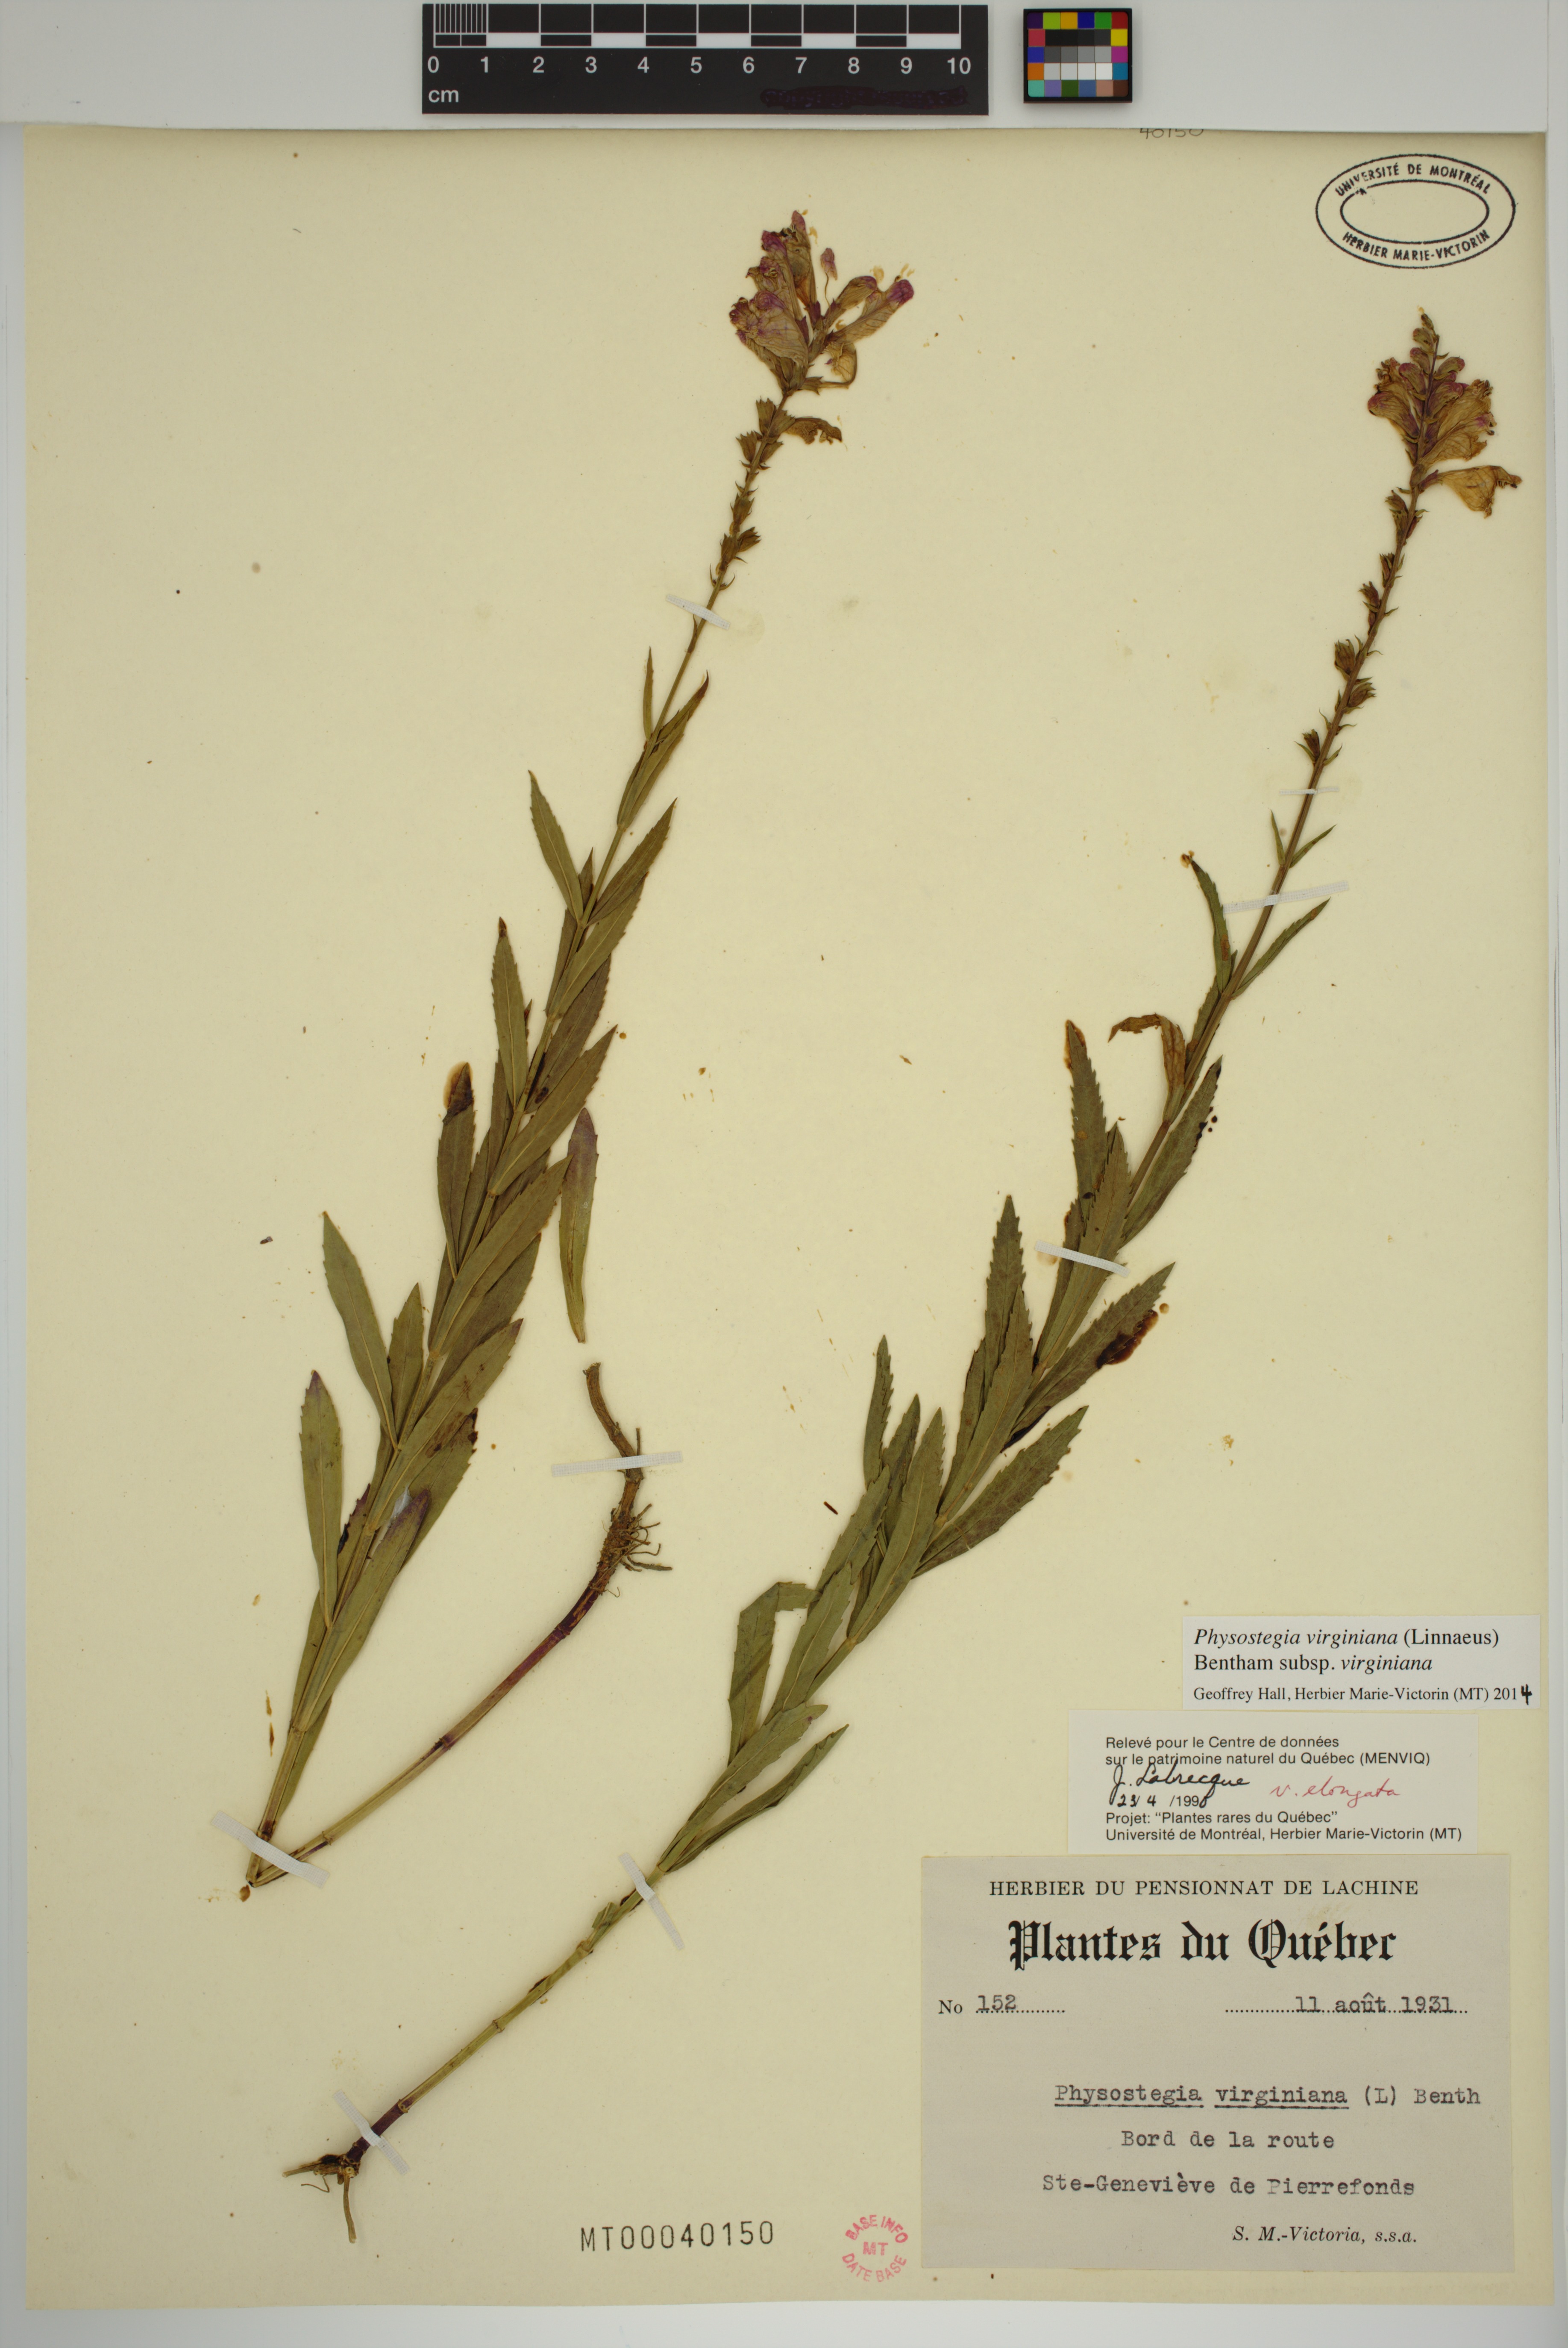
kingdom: Plantae
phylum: Tracheophyta
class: Magnoliopsida
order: Lamiales
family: Lamiaceae
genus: Physostegia
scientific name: Physostegia virginiana
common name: Obedient-plant
